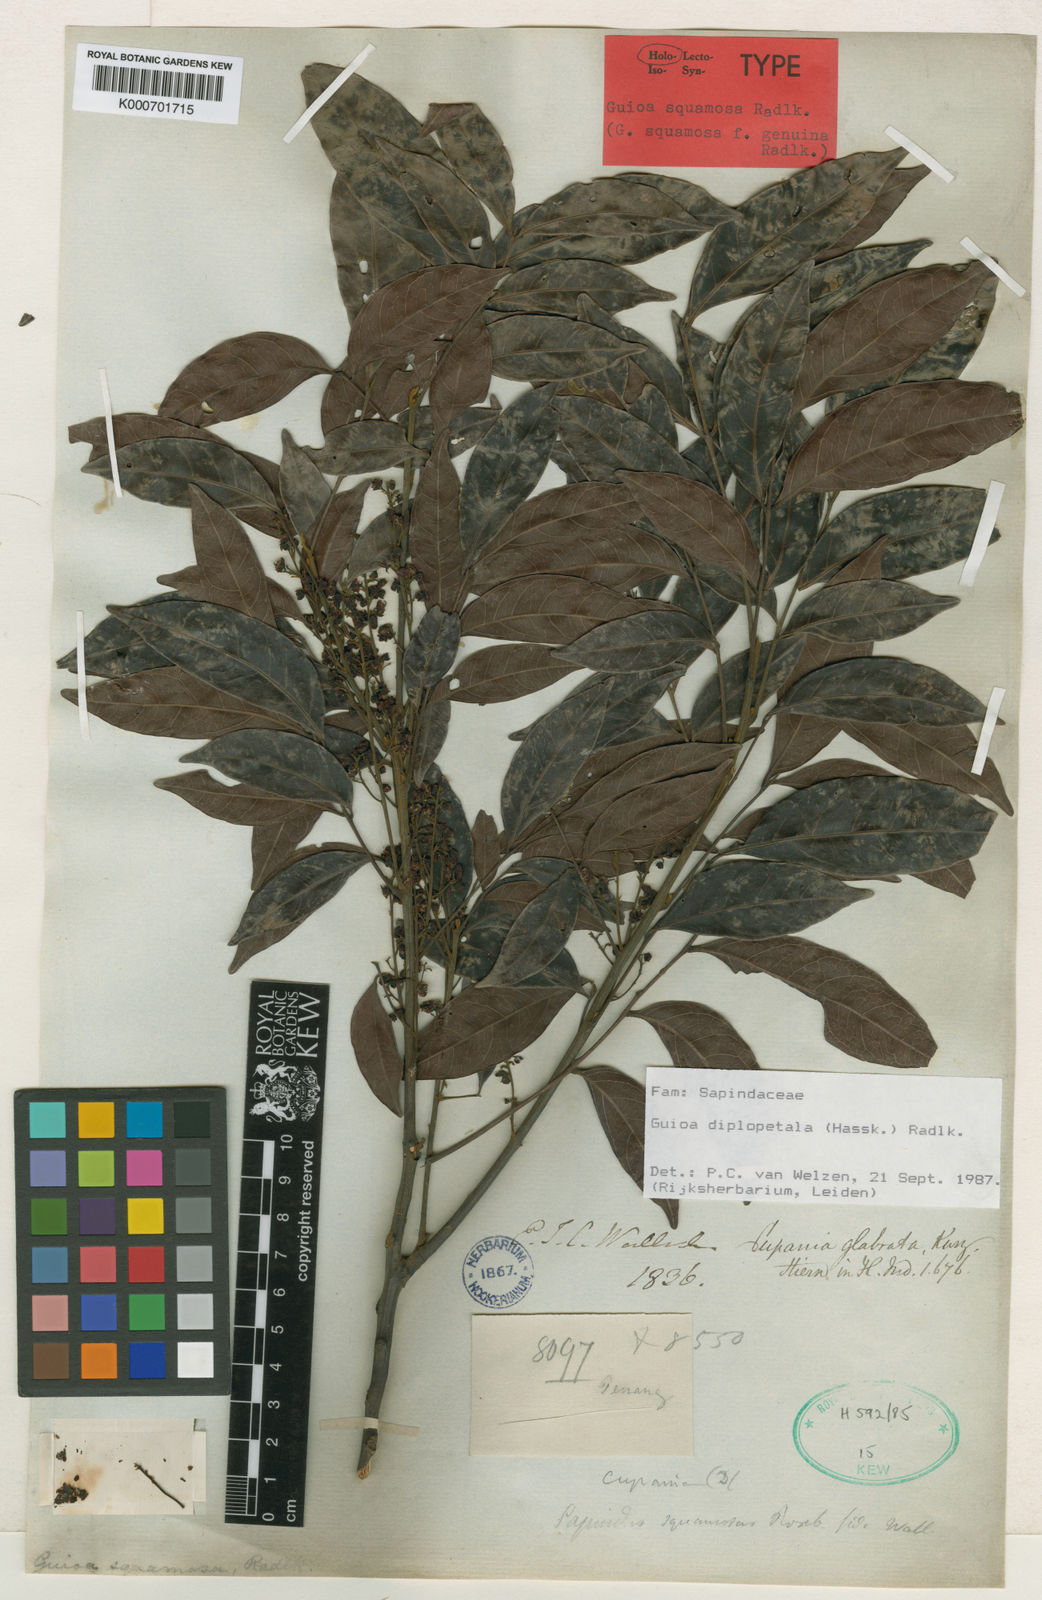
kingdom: Plantae
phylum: Tracheophyta
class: Magnoliopsida
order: Sapindales
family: Sapindaceae
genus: Guioa
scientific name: Guioa diplopetala
